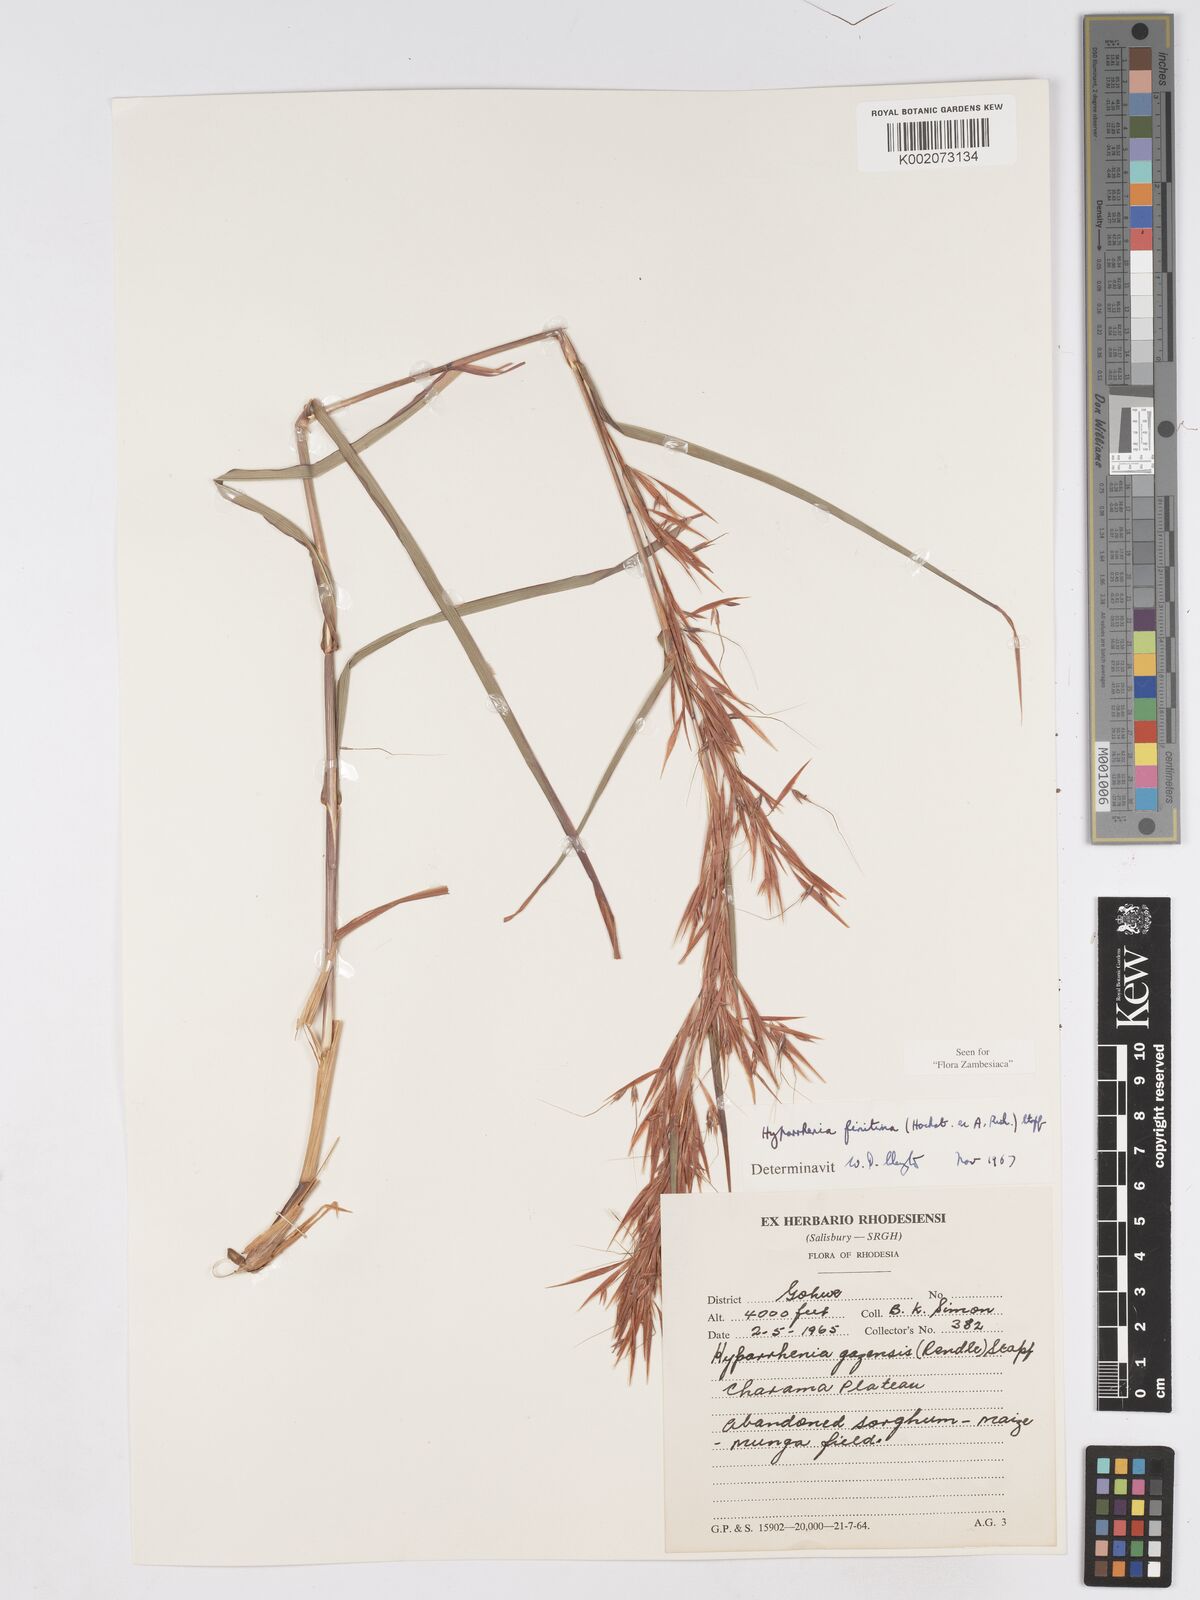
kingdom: Plantae
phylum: Tracheophyta
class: Liliopsida
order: Poales
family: Poaceae
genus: Hyparrhenia
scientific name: Hyparrhenia finitima
